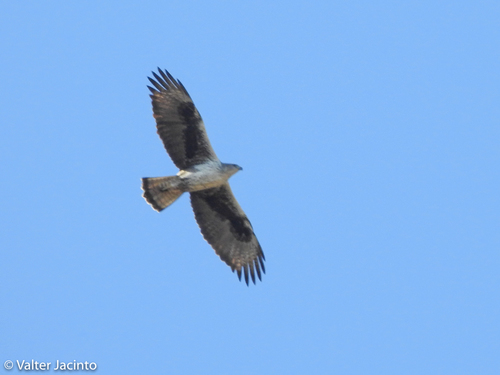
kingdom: Animalia
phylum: Chordata
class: Aves
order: Accipitriformes
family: Accipitridae
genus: Aquila
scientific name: Aquila fasciata
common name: Bonelli's eagle
